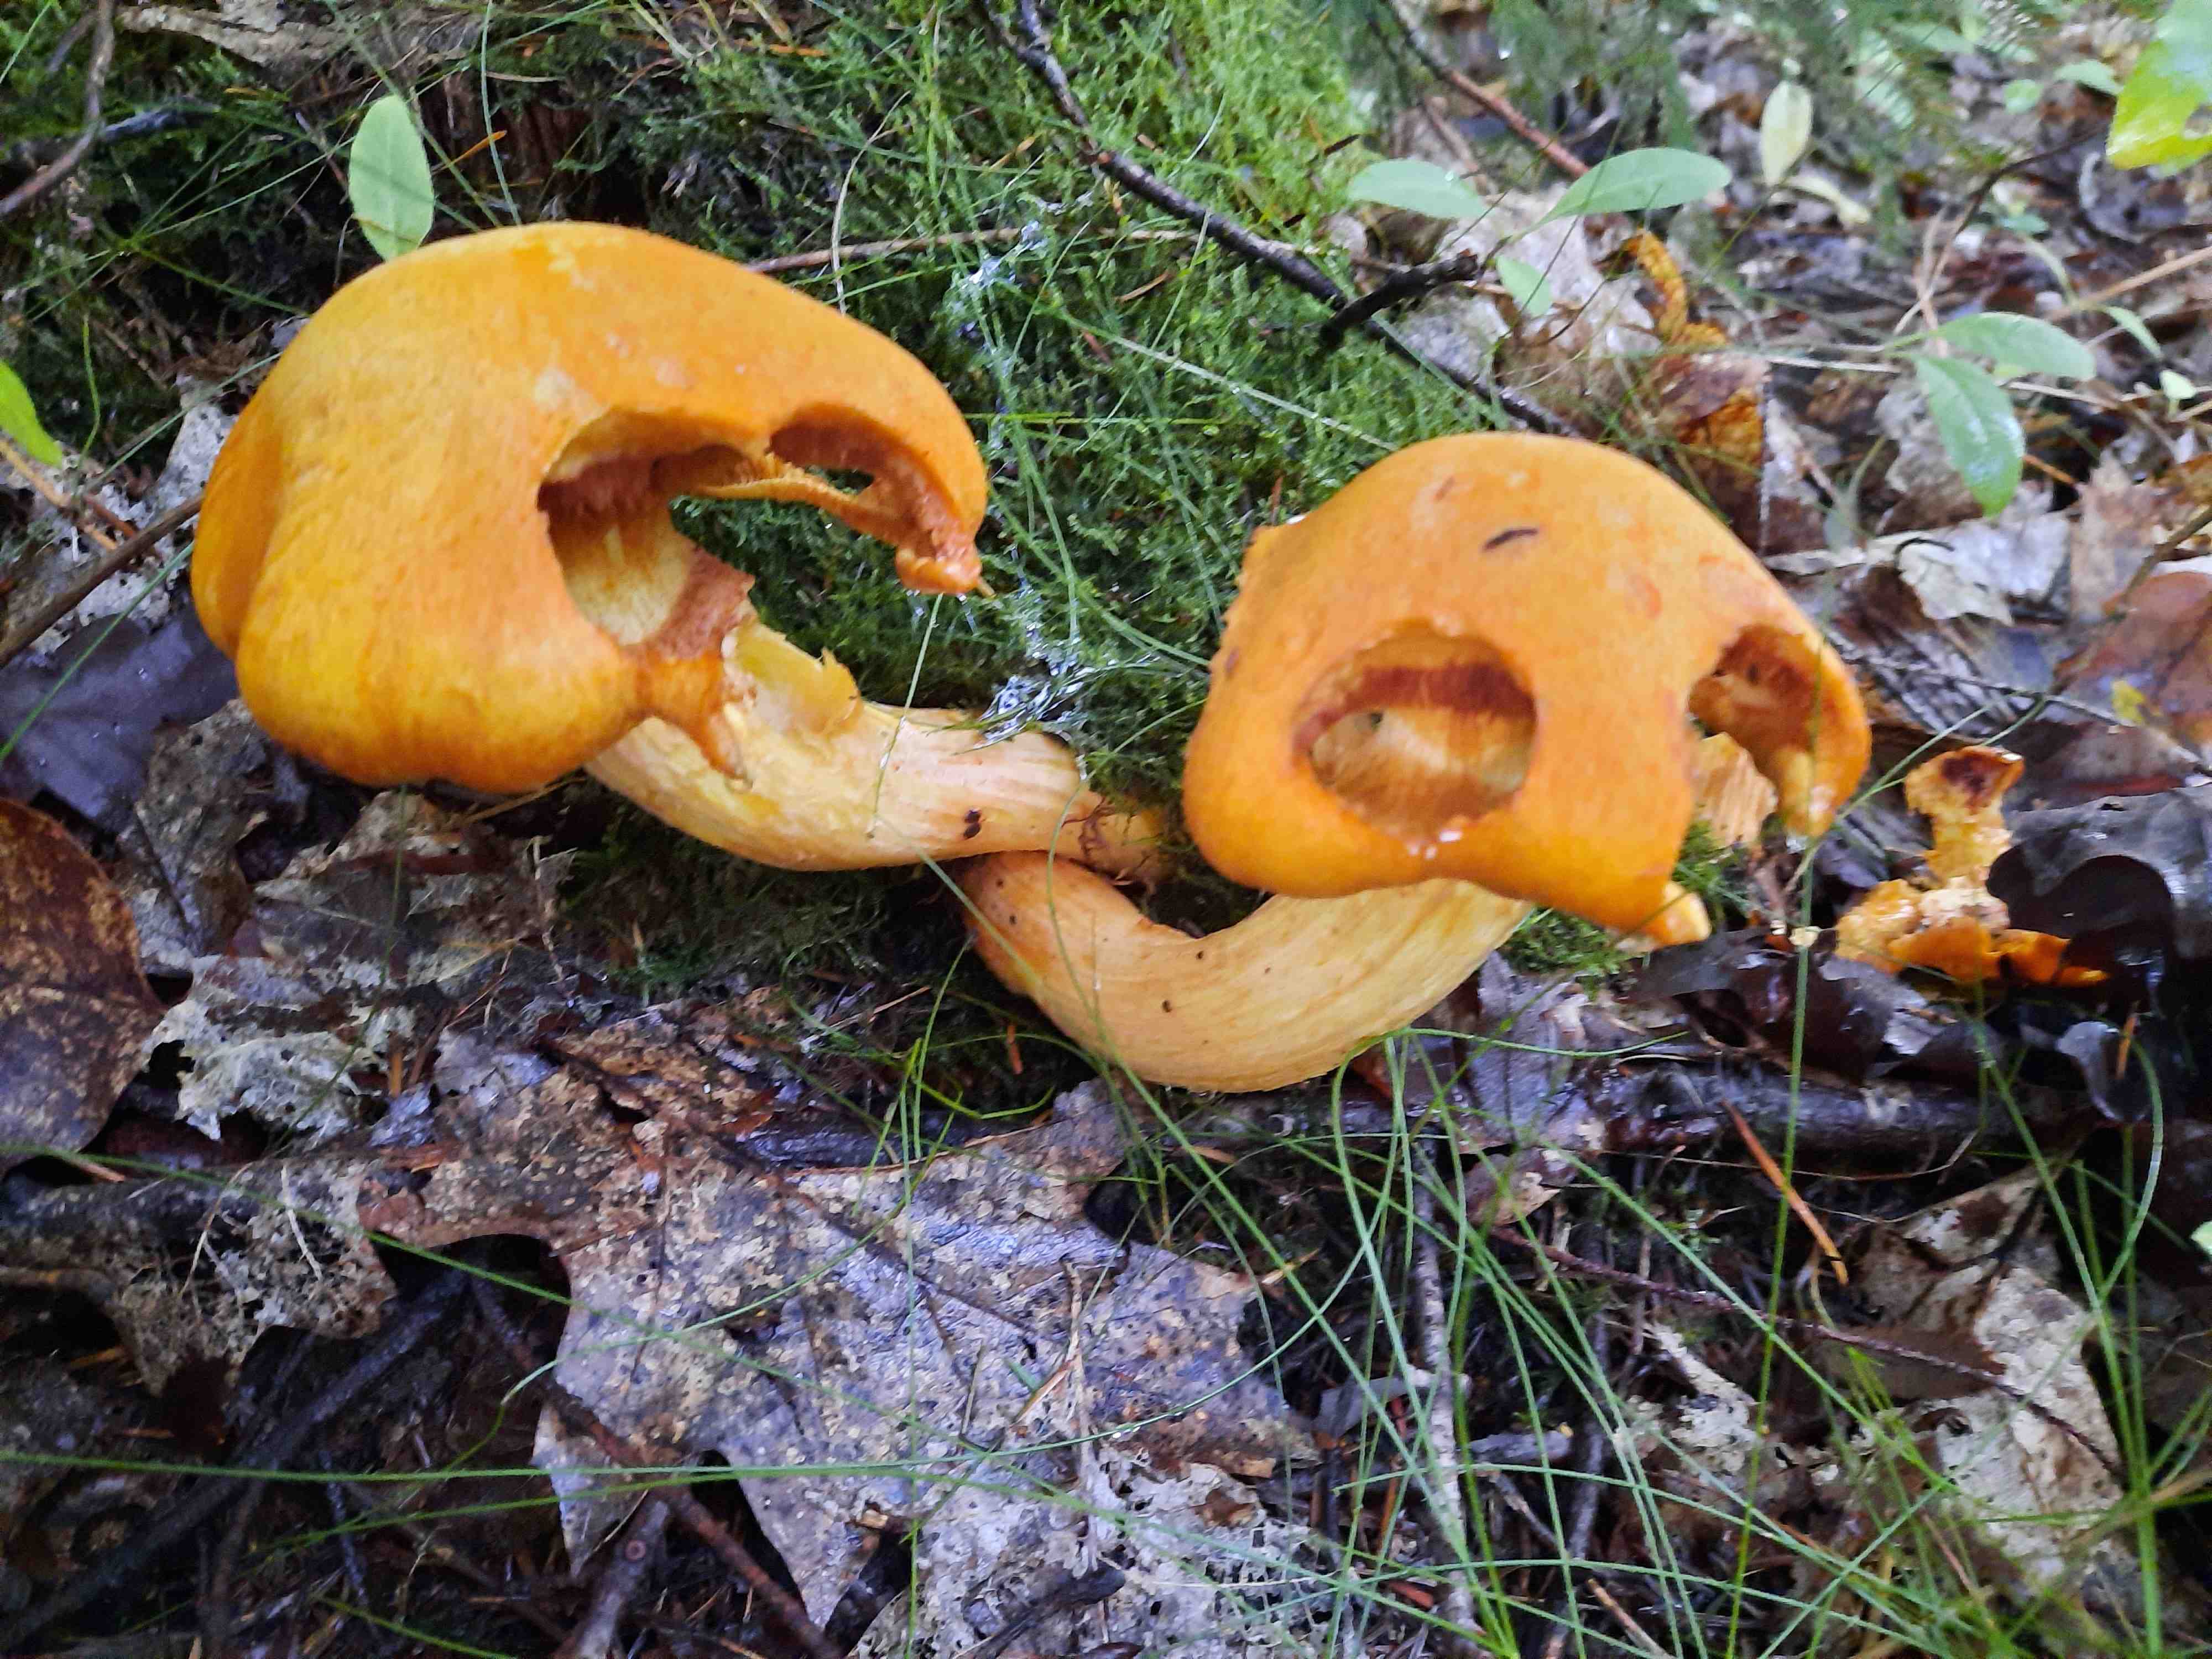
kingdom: Fungi
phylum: Basidiomycota
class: Agaricomycetes
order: Agaricales
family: Hymenogastraceae
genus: Gymnopilus
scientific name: Gymnopilus spectabilis
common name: fibret flammehat
